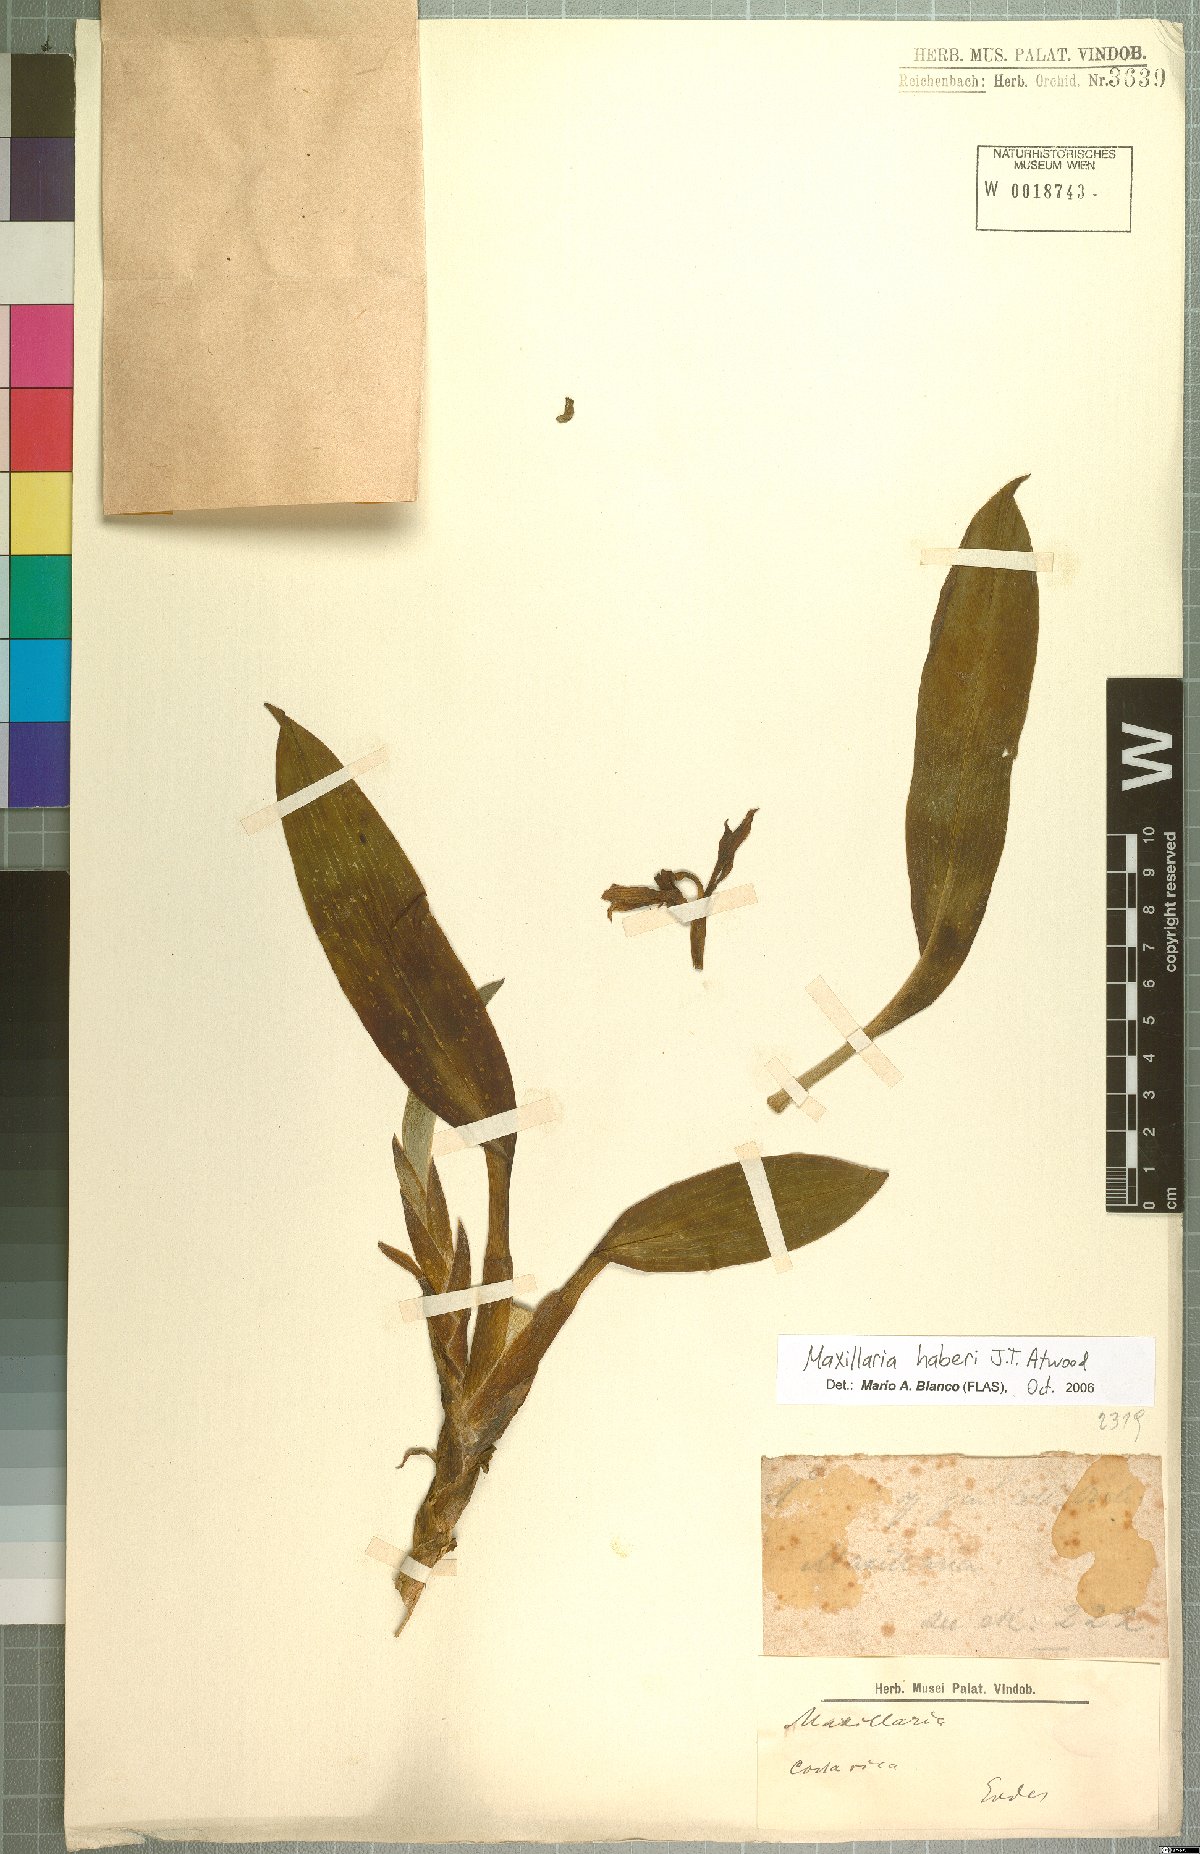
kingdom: Plantae
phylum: Tracheophyta
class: Liliopsida
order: Asparagales
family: Orchidaceae
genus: Maxillaria
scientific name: Maxillaria haberi
